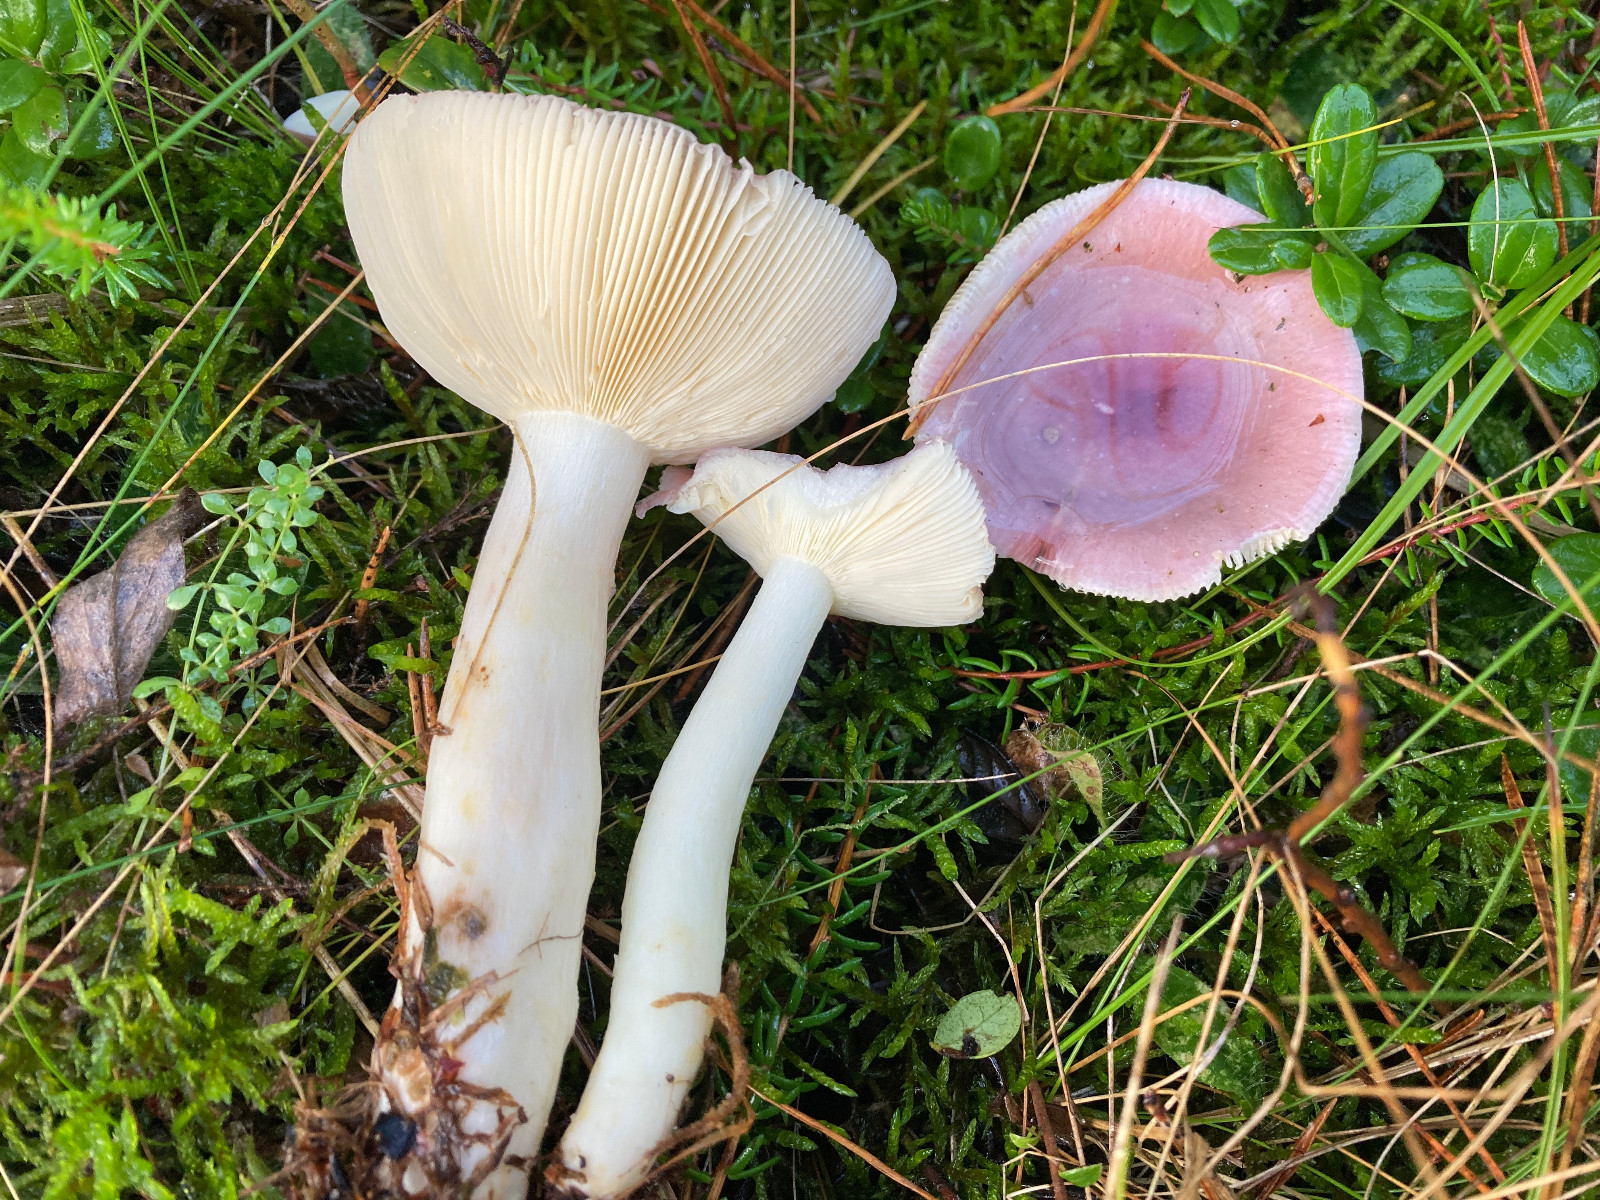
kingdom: Fungi
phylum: Basidiomycota
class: Agaricomycetes
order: Russulales
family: Russulaceae
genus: Russula
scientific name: Russula
